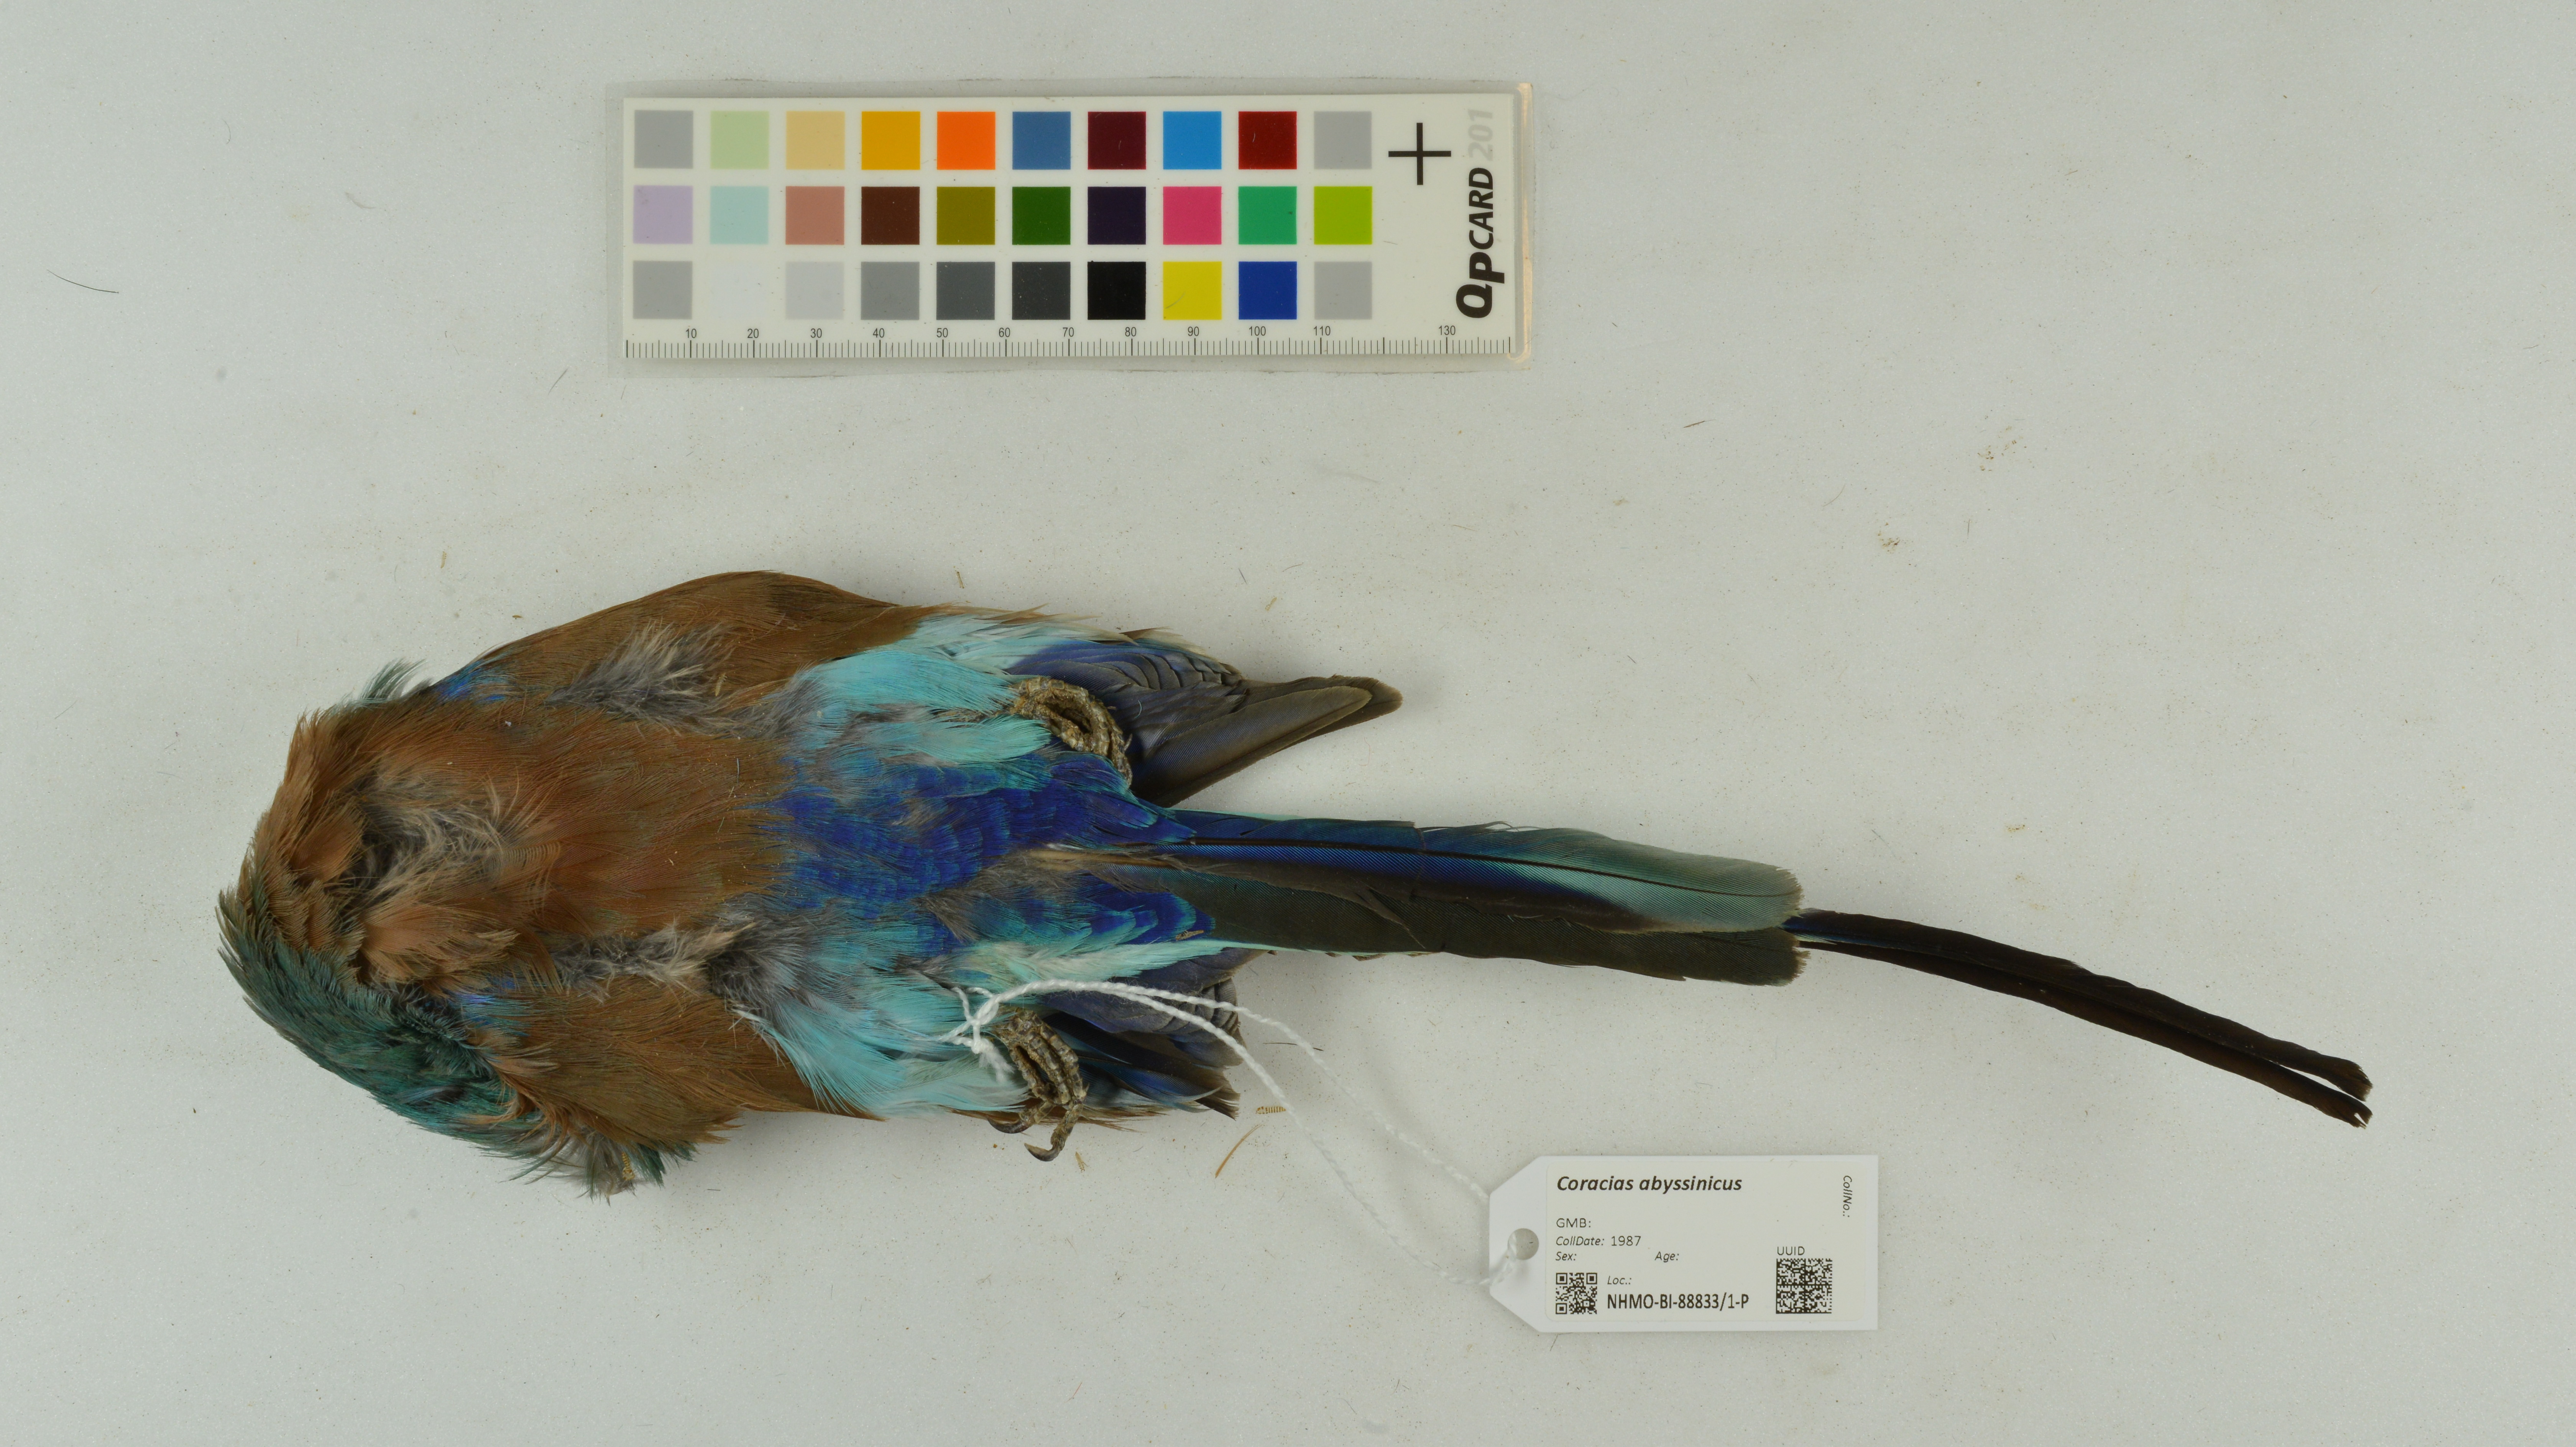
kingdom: Animalia
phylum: Chordata
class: Aves
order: Coraciiformes
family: Coraciidae
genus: Coracias
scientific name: Coracias abyssinicus
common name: Abyssinian roller
